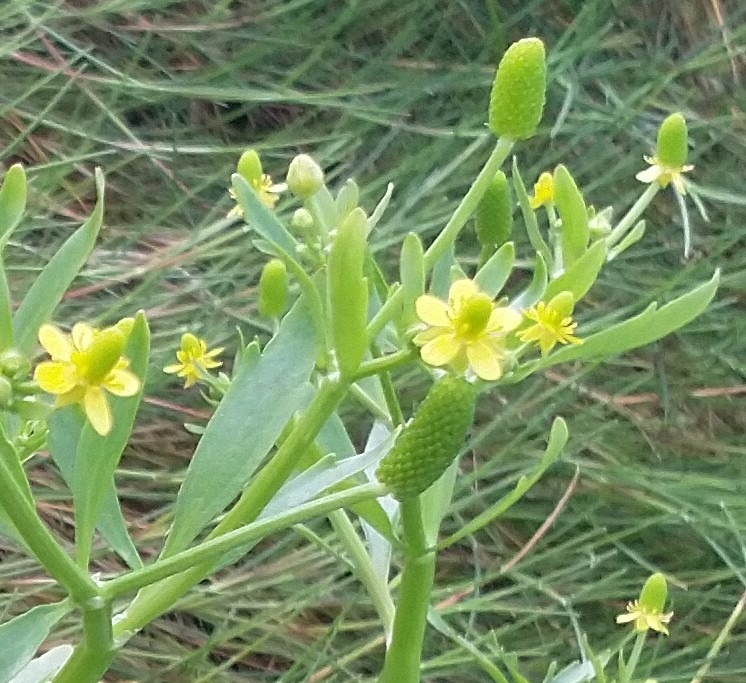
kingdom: Plantae
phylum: Tracheophyta
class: Magnoliopsida
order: Ranunculales
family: Ranunculaceae
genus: Ranunculus
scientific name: Ranunculus sceleratus
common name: Tigger-ranunkel
